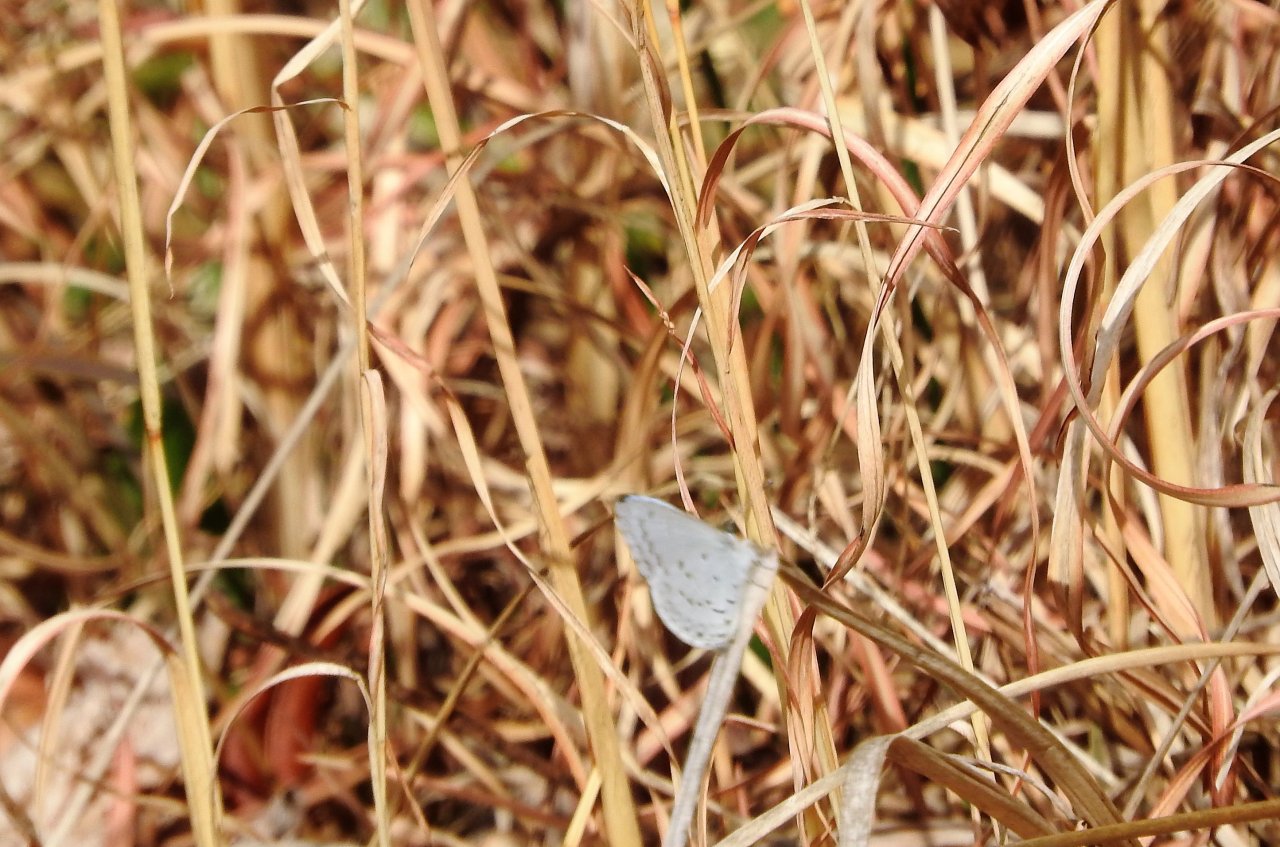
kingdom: Animalia
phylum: Arthropoda
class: Insecta
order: Lepidoptera
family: Lycaenidae
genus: Cyaniris
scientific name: Cyaniris neglecta
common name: Summer Azure
